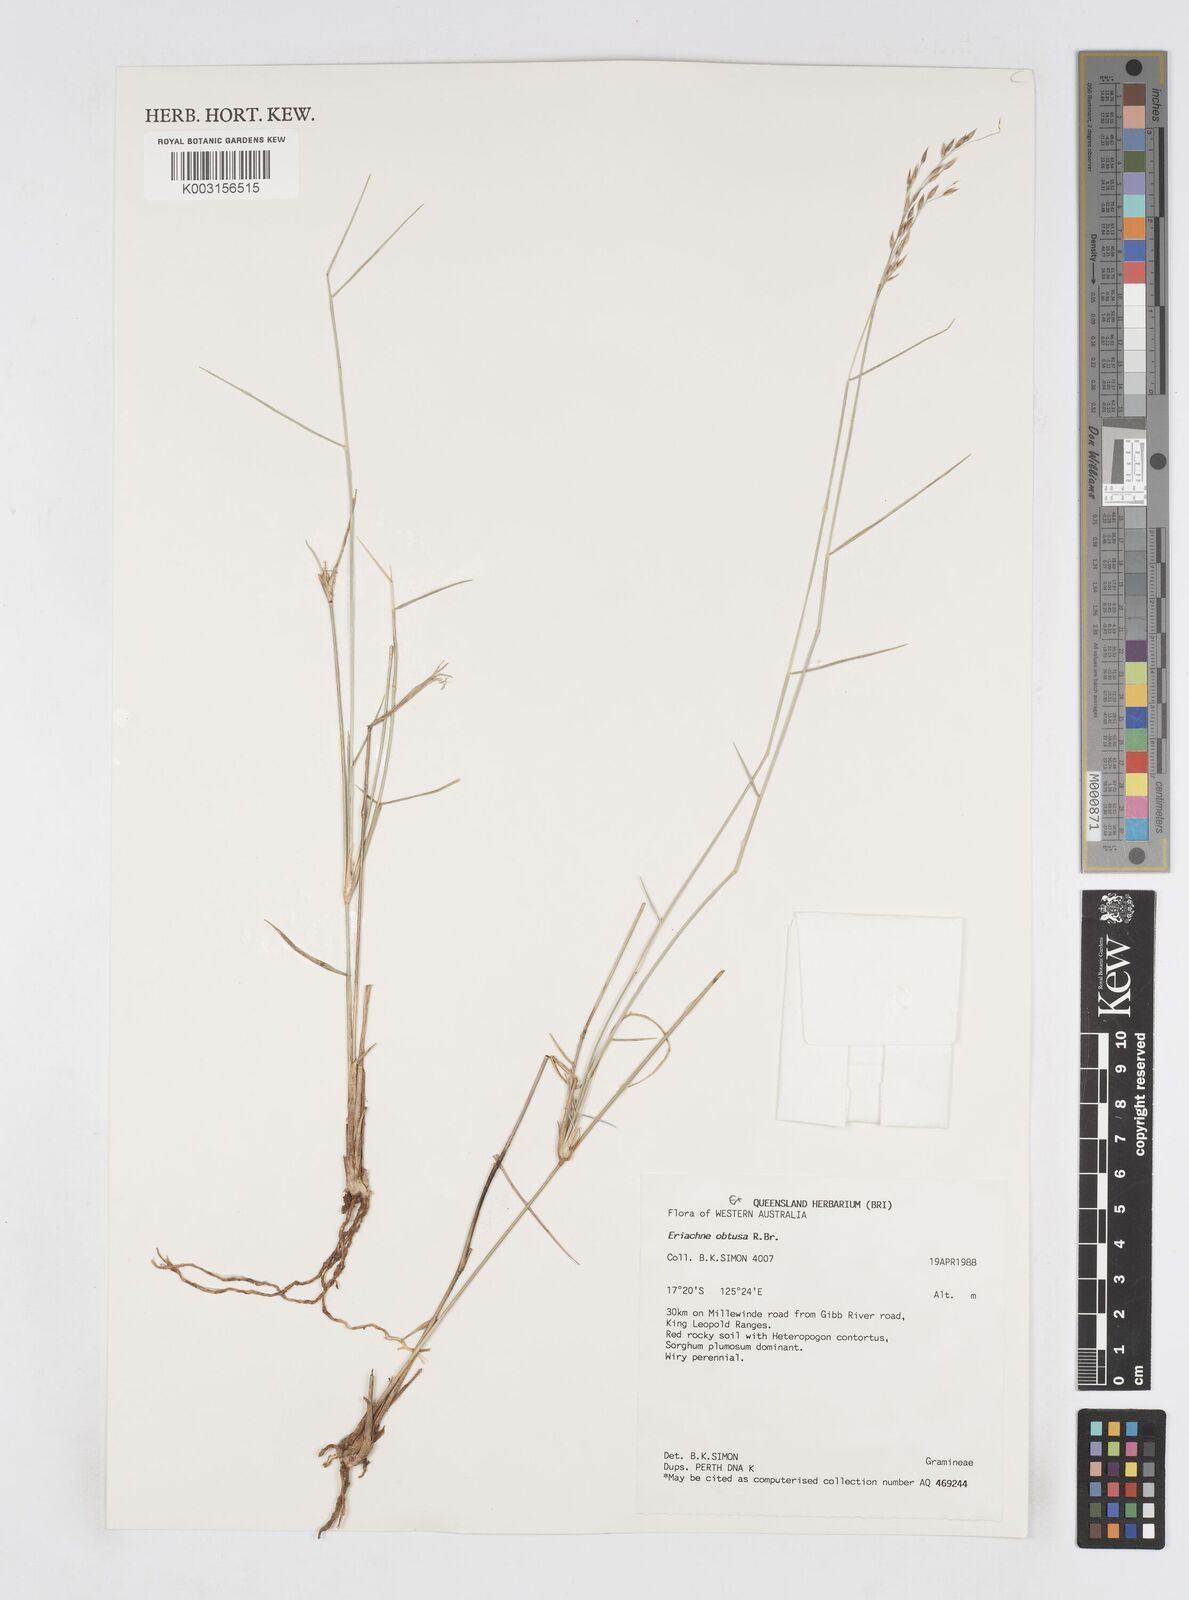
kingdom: Plantae
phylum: Tracheophyta
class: Liliopsida
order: Poales
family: Poaceae
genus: Eriachne
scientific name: Eriachne obtusa
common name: Northern wanderrie grass
